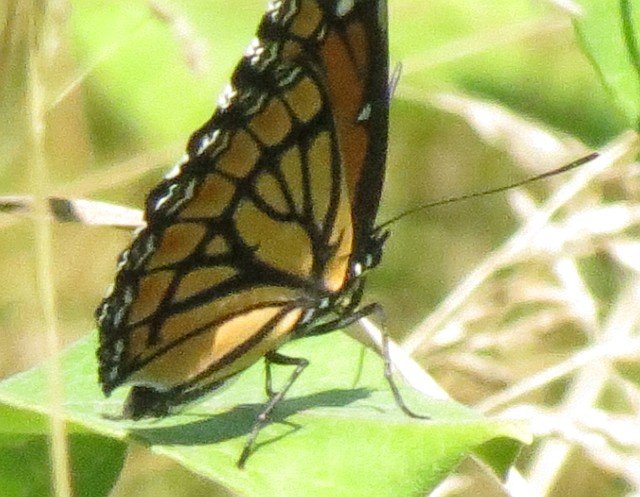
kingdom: Animalia
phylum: Arthropoda
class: Insecta
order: Lepidoptera
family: Nymphalidae
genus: Limenitis
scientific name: Limenitis archippus
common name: Viceroy
